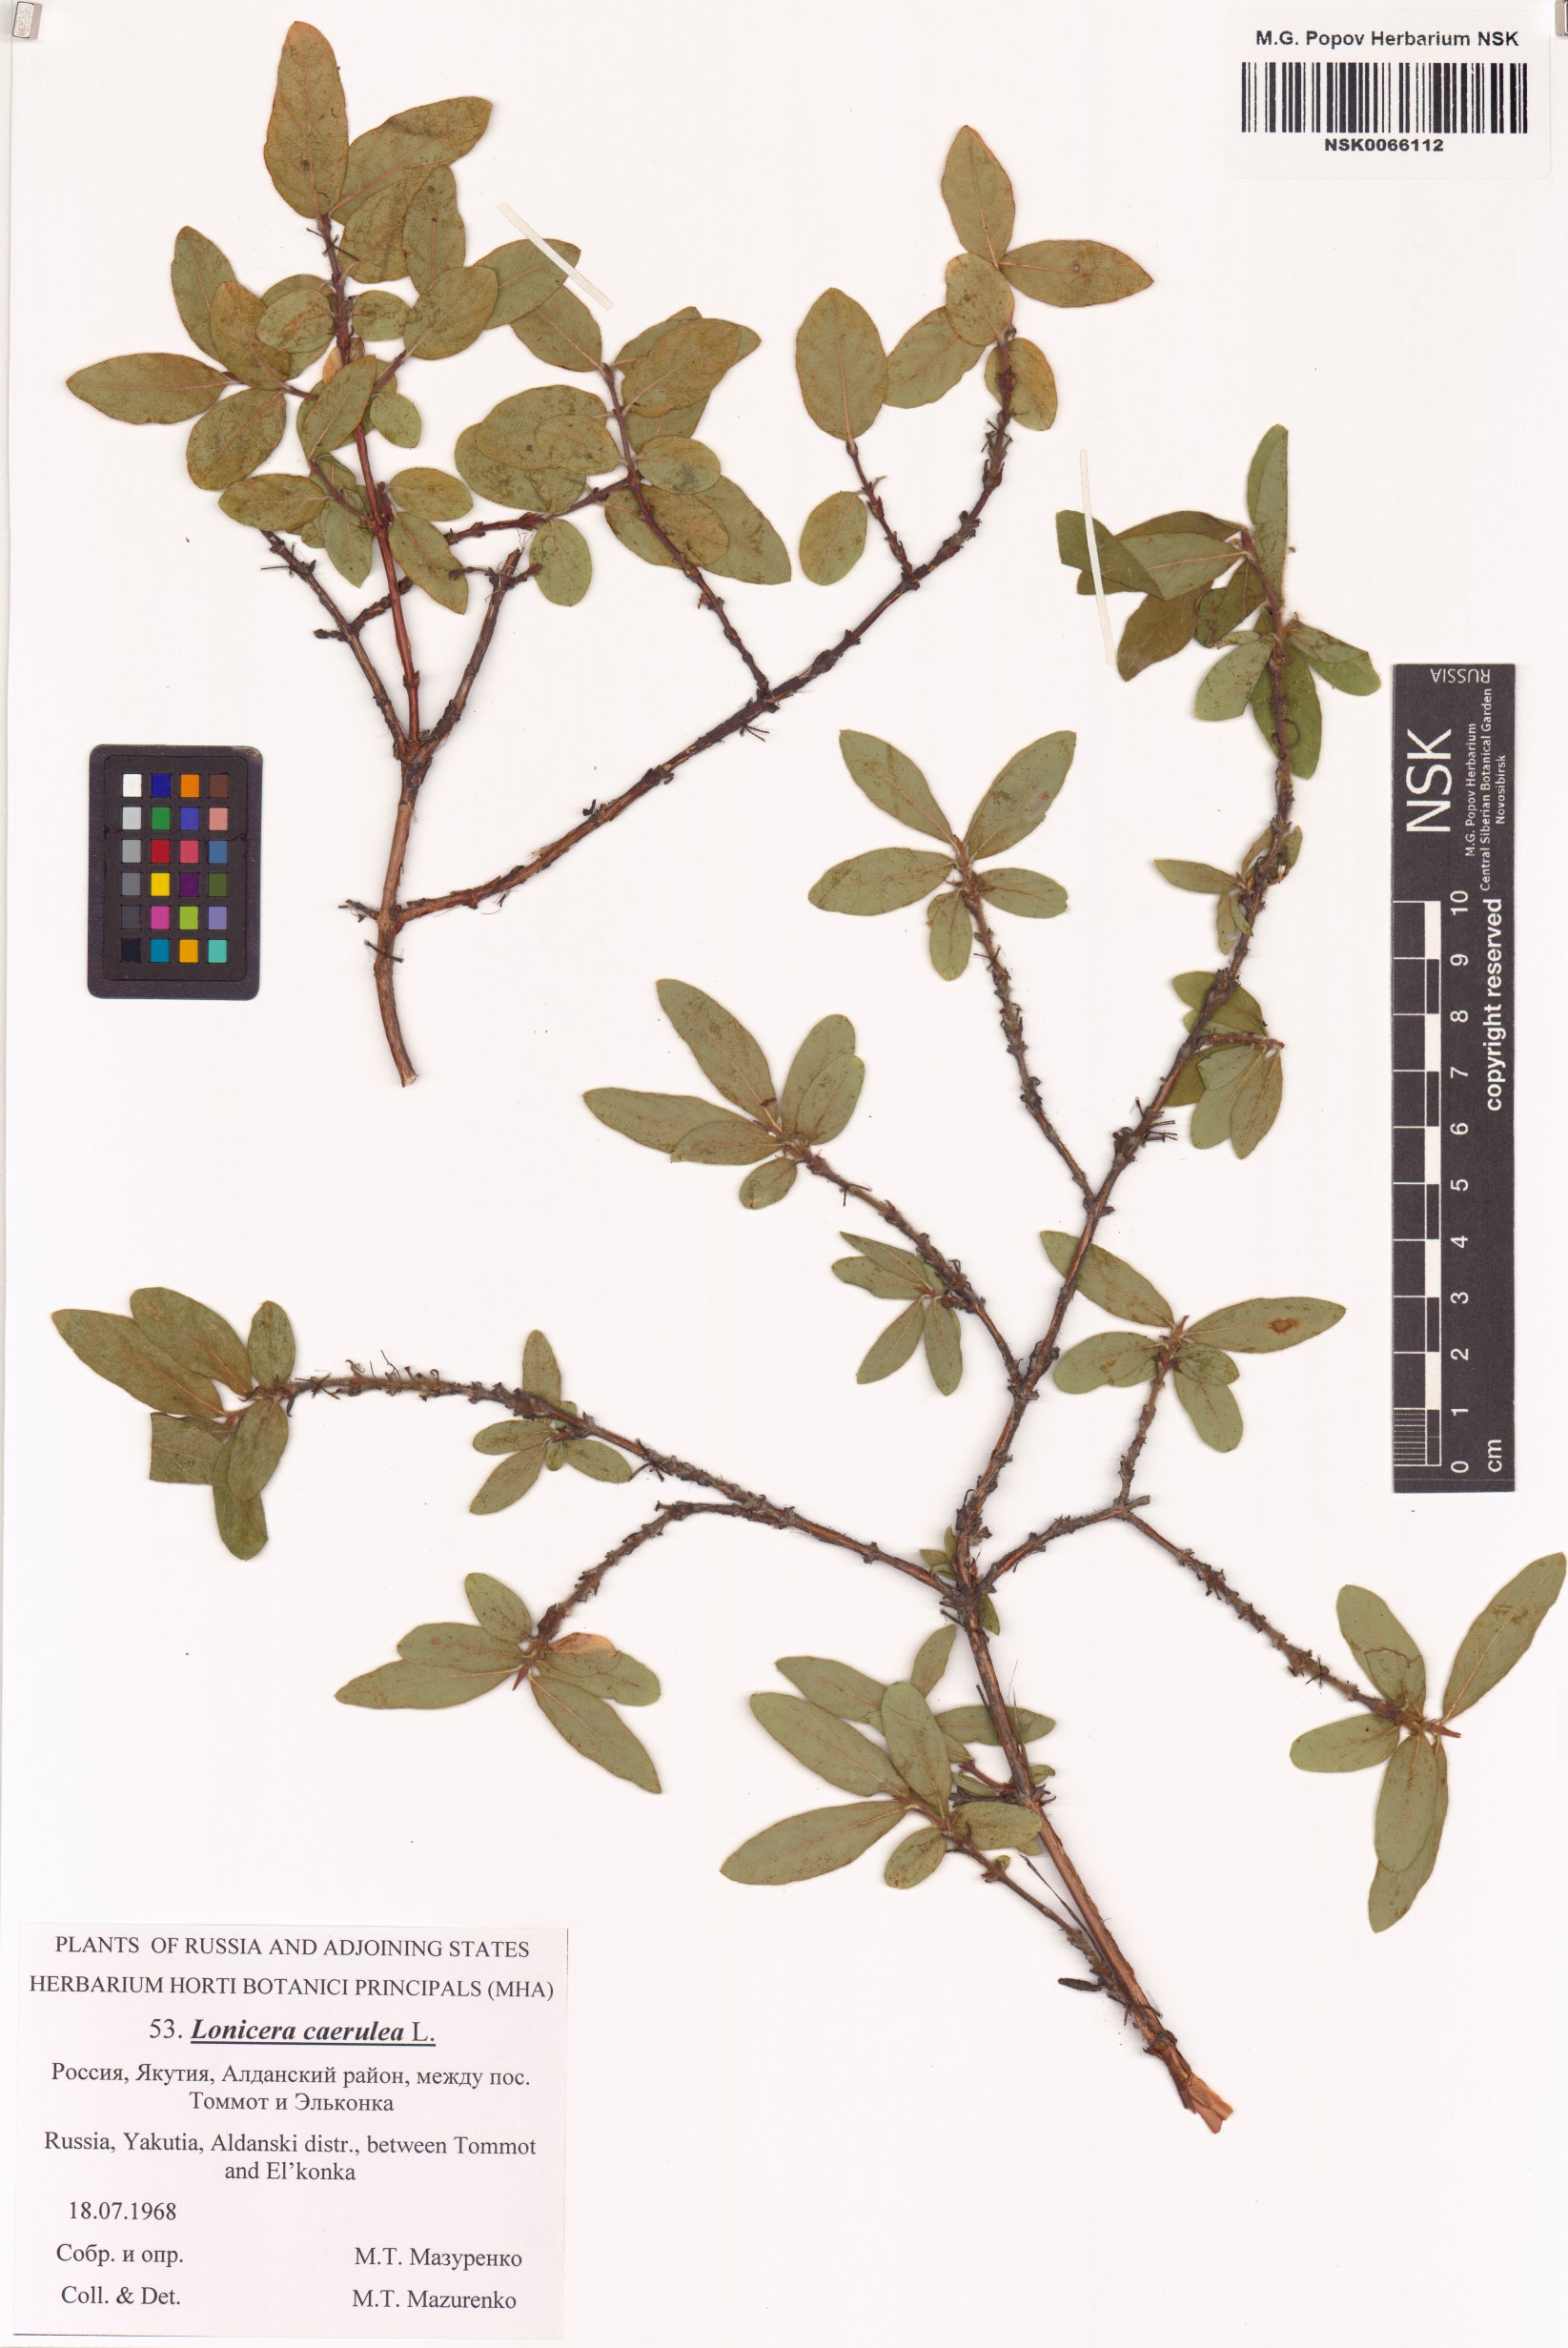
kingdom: Plantae
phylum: Tracheophyta
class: Magnoliopsida
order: Dipsacales
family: Caprifoliaceae
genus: Lonicera
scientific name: Lonicera caerulea
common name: Blue honeysuckle
